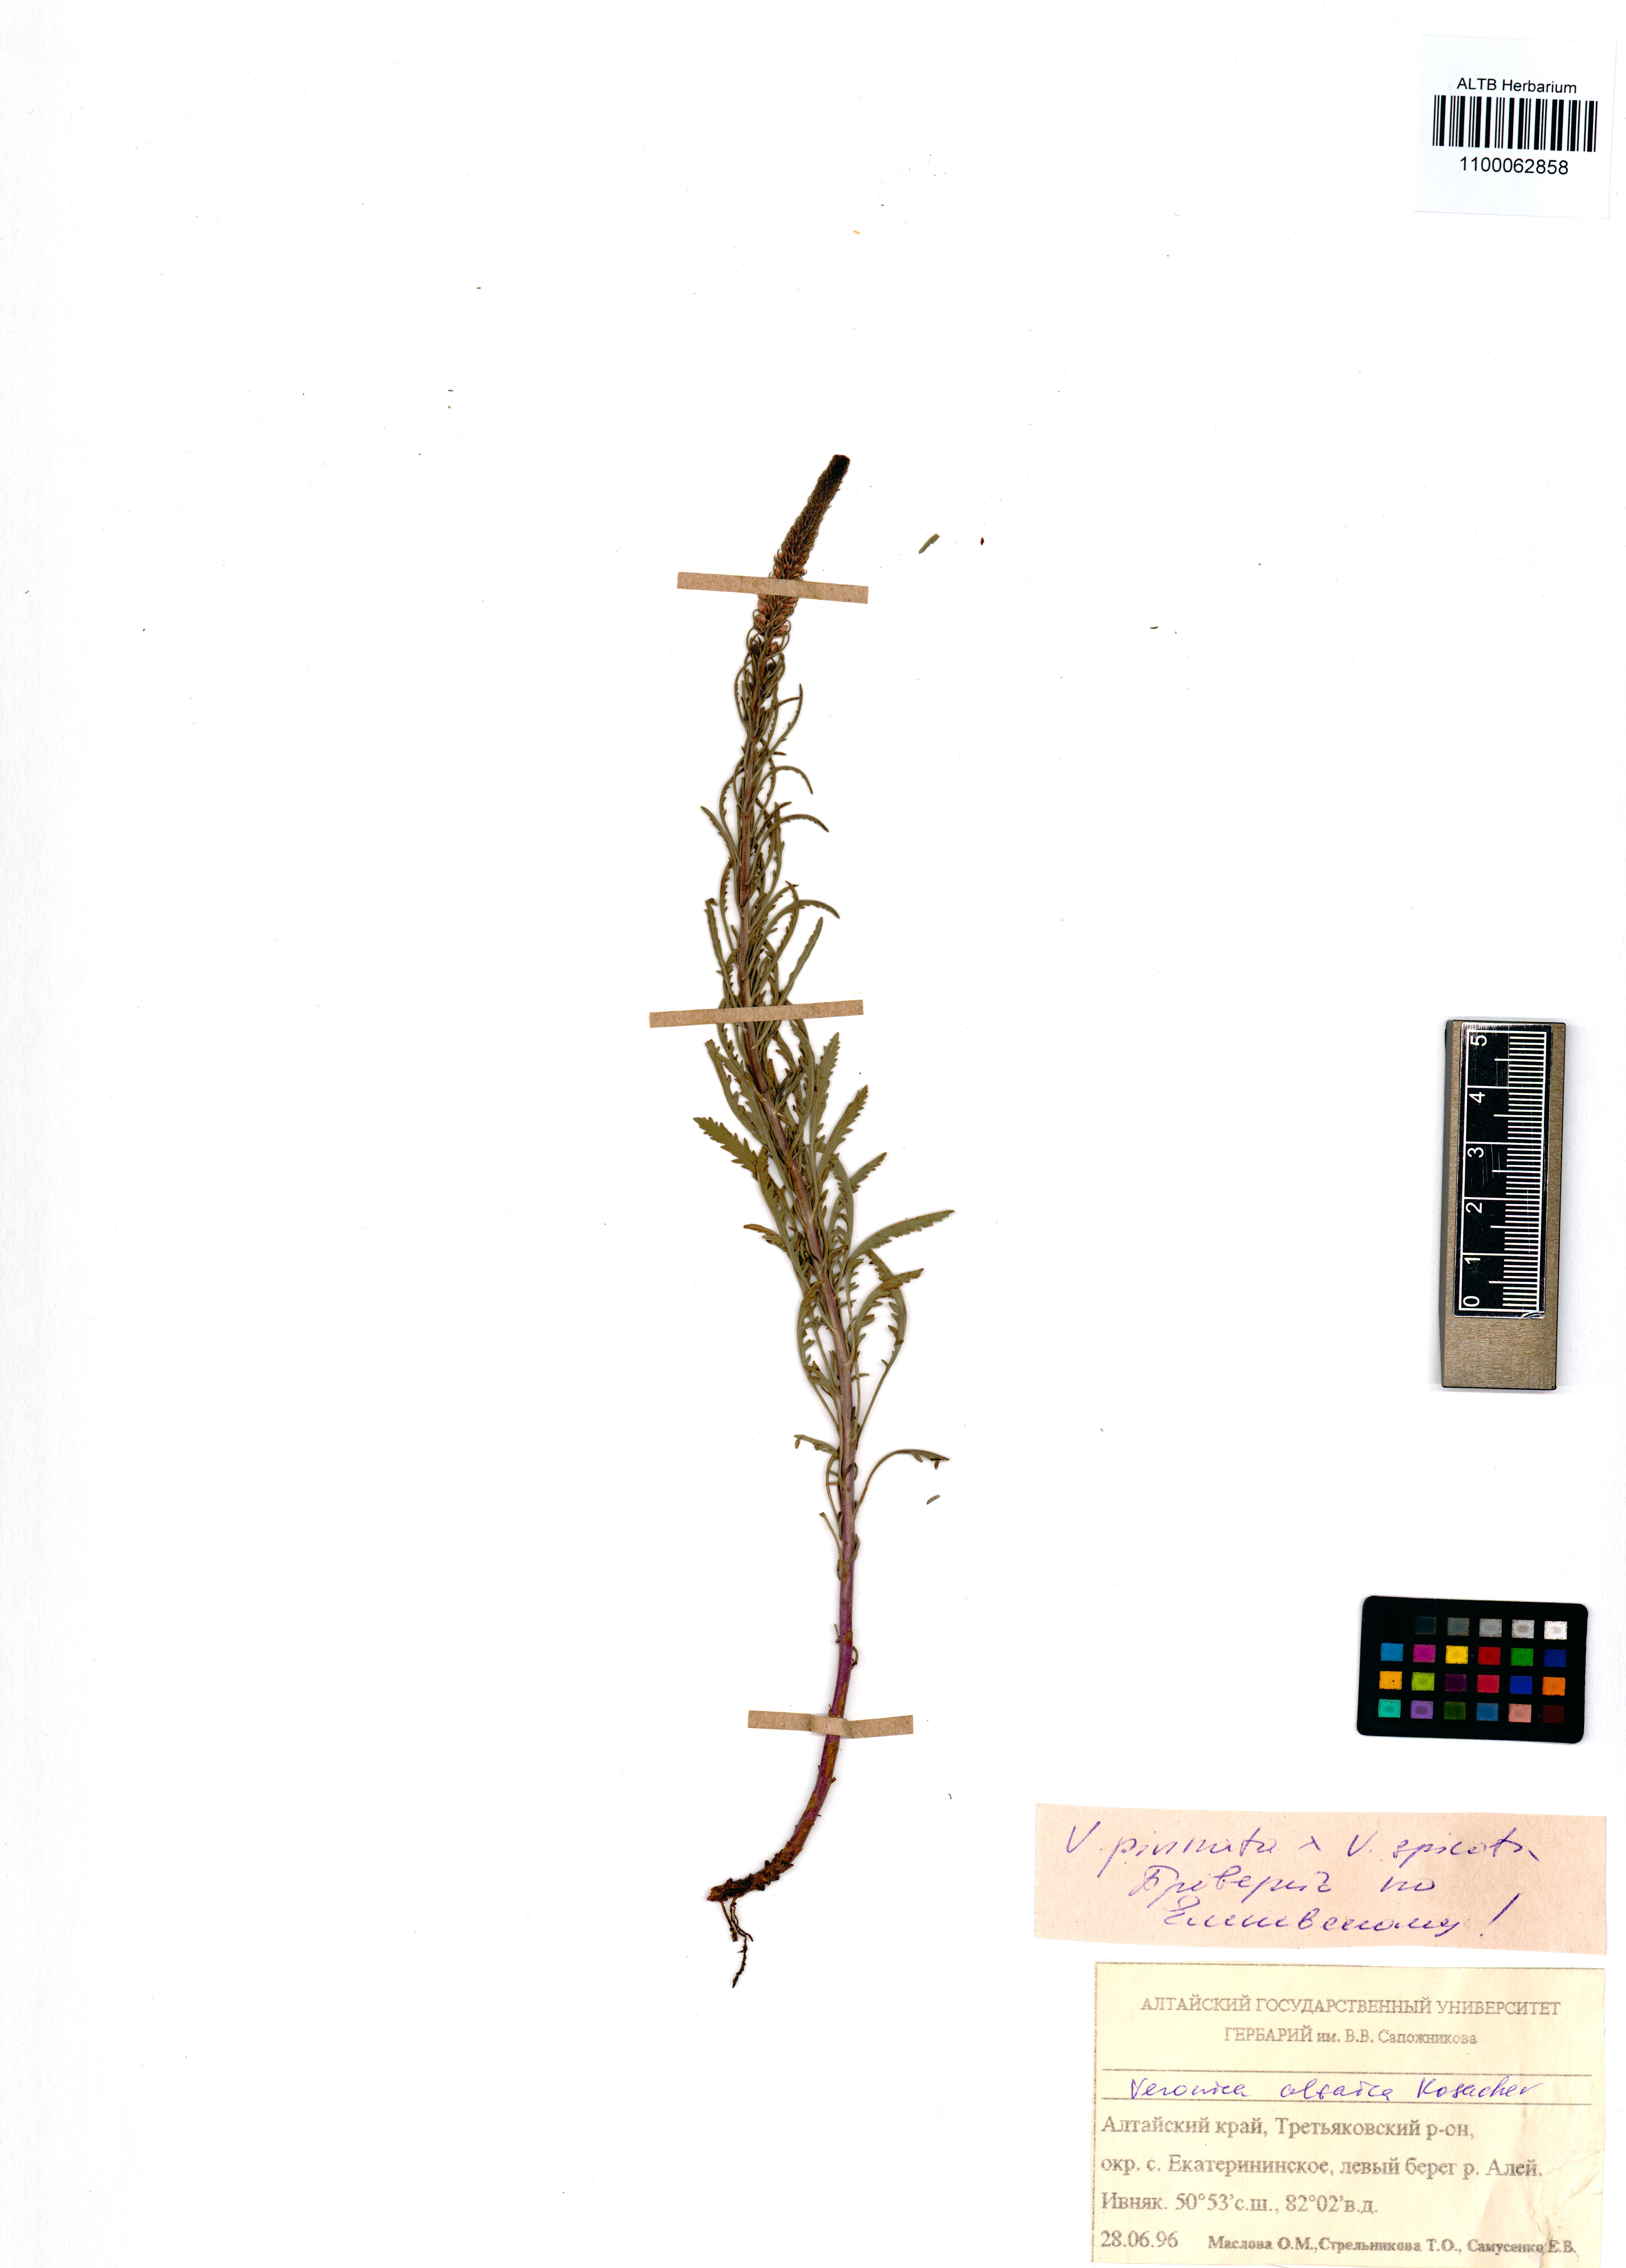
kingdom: Plantae
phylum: Tracheophyta
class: Magnoliopsida
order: Lamiales
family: Plantaginaceae
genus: Veronica
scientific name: Veronica altaica
